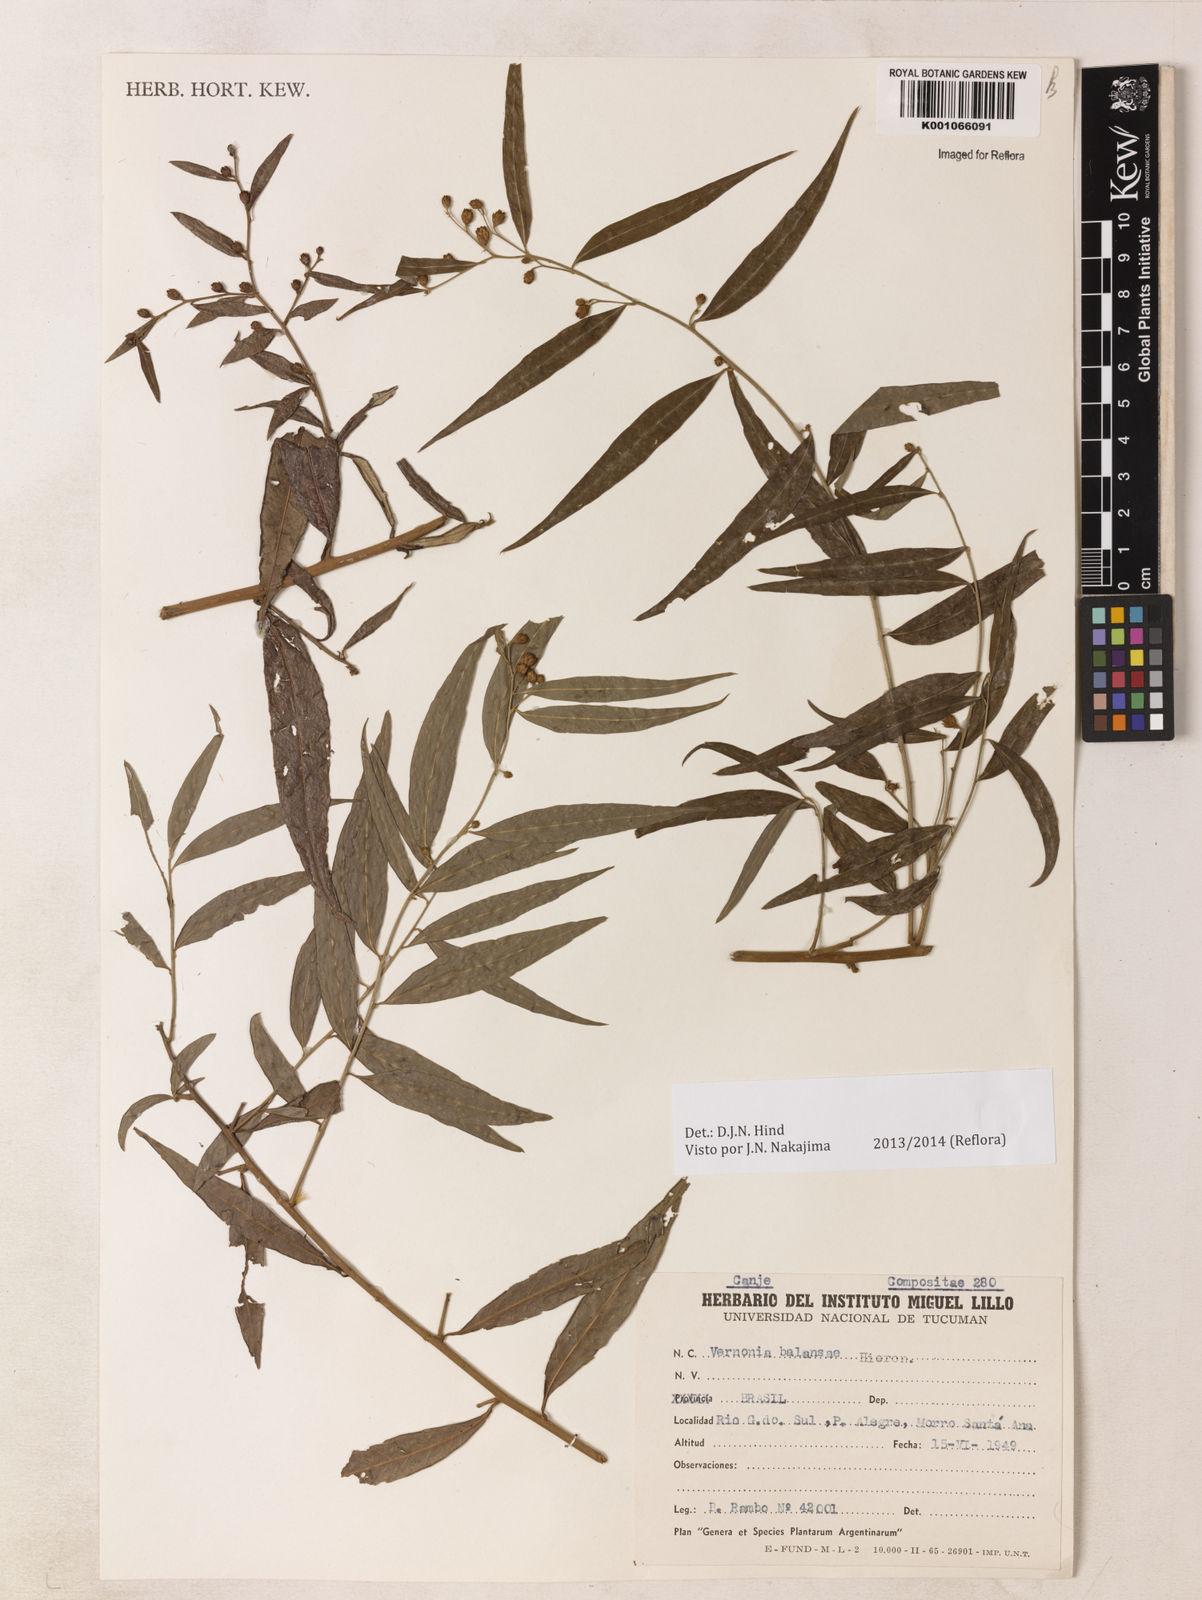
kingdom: Plantae
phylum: Tracheophyta
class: Magnoliopsida
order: Asterales
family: Asteraceae
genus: Vernonia
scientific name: Vernonia balansae
